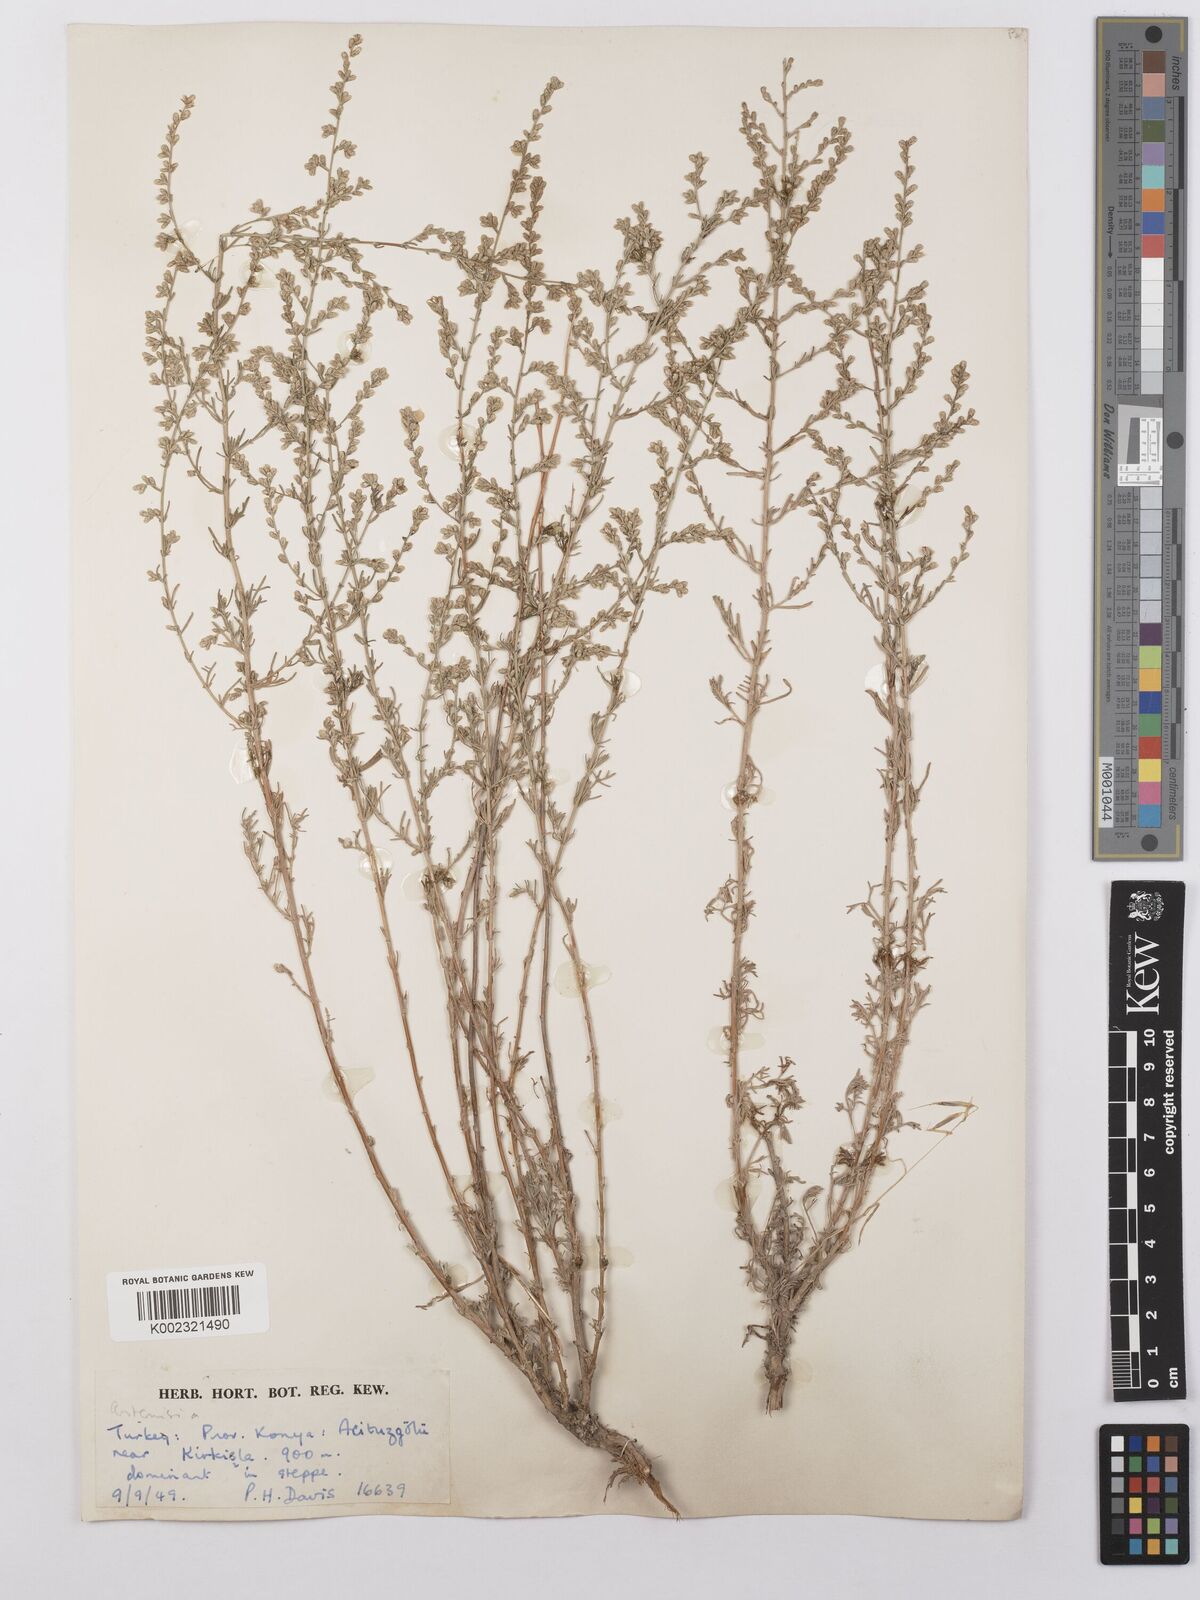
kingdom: Plantae
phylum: Tracheophyta
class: Magnoliopsida
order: Asterales
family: Asteraceae
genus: Artemisia
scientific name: Artemisia taurica
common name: Tauric wormwood
